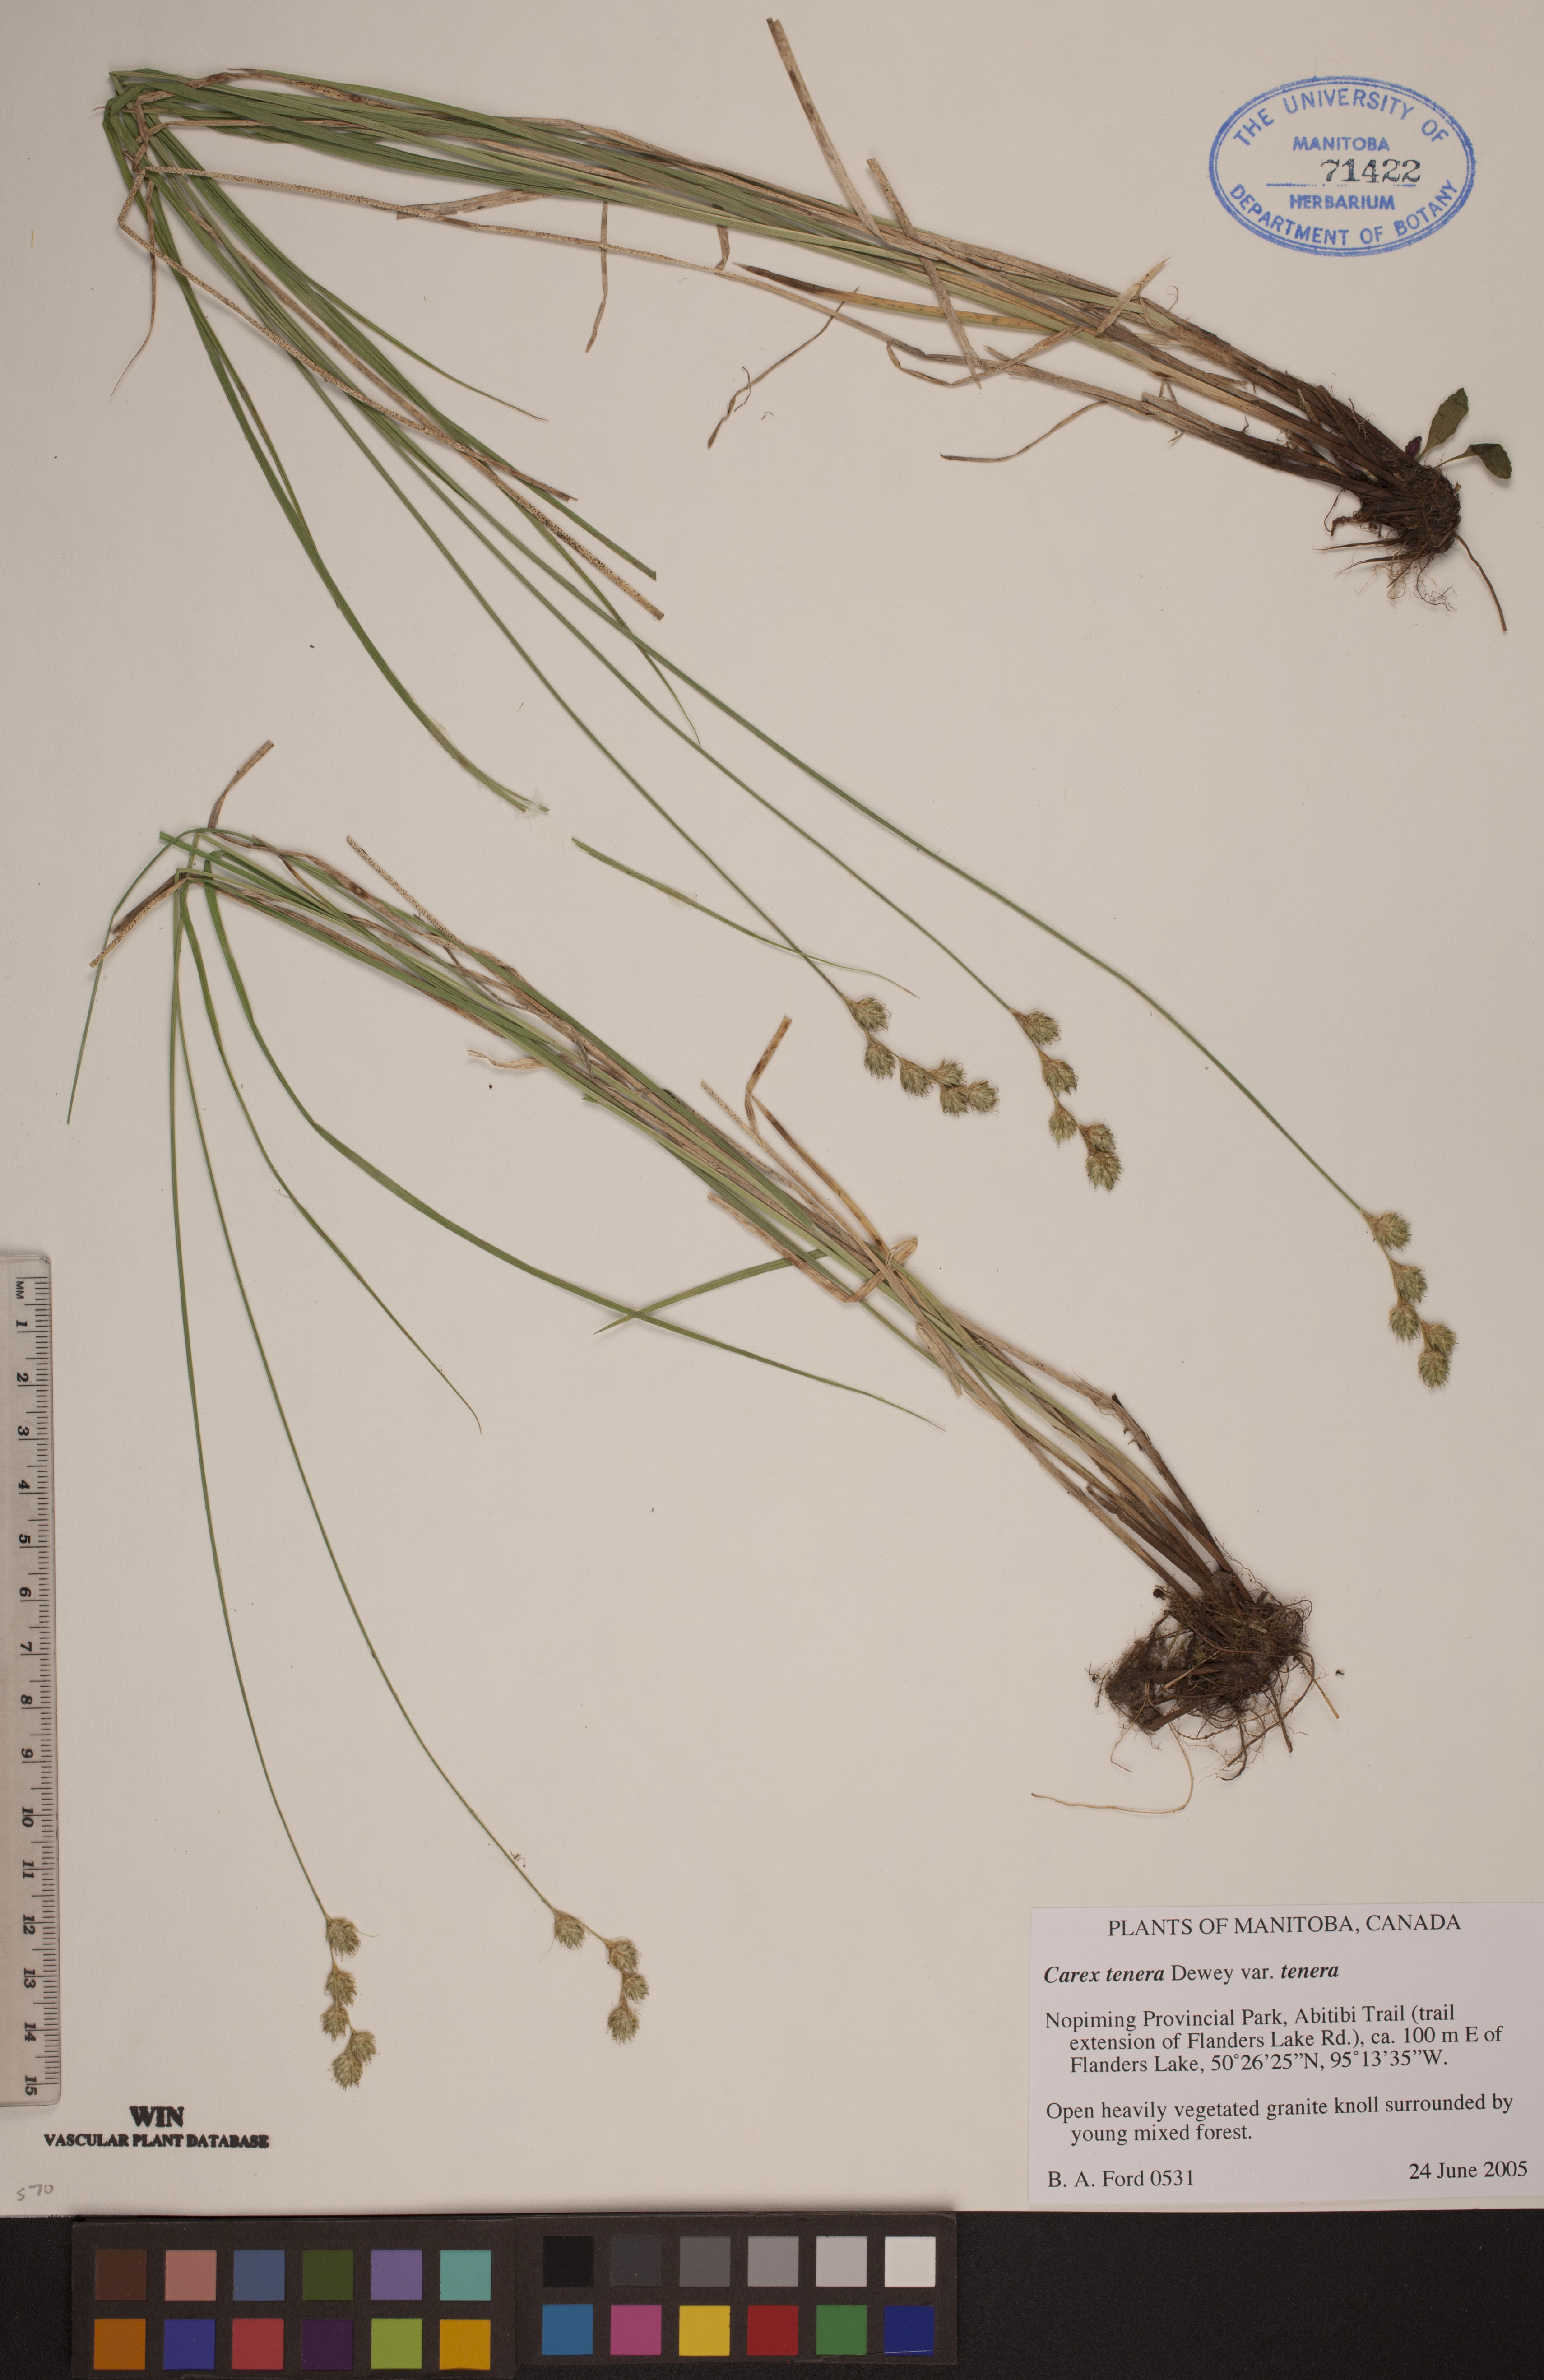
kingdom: Plantae
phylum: Tracheophyta
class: Liliopsida
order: Poales
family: Cyperaceae
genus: Carex
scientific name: Carex tenera
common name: Broad-fruited sedge
